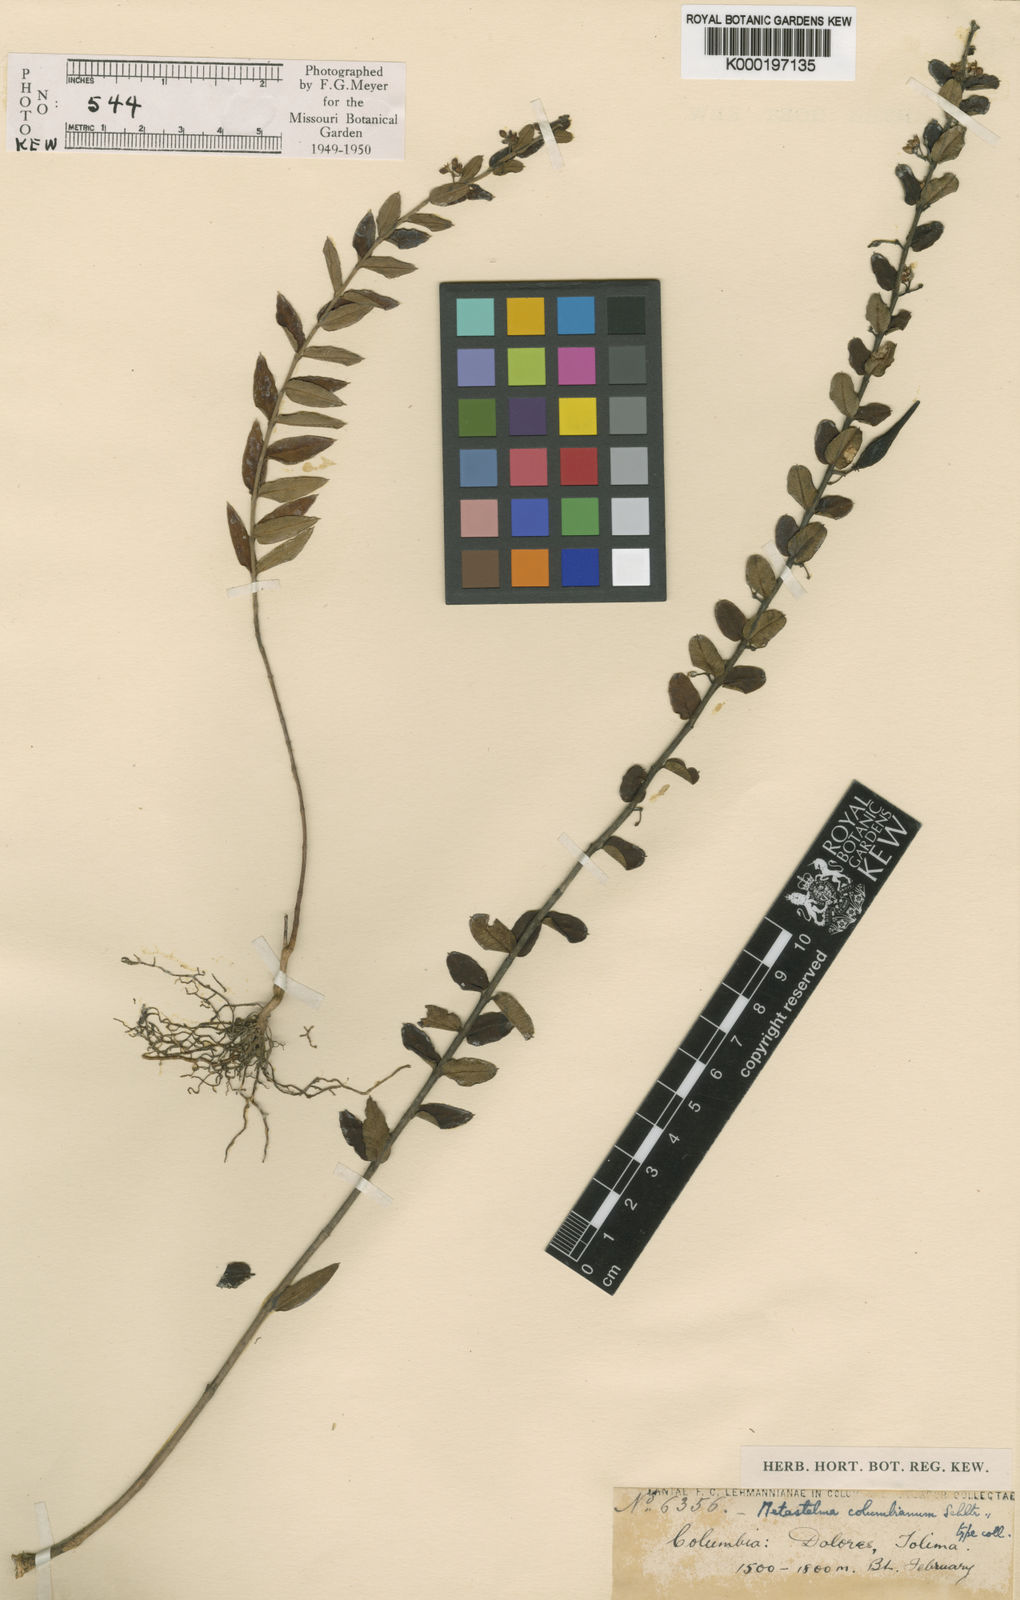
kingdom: Plantae
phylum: Tracheophyta
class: Magnoliopsida
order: Gentianales
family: Apocynaceae
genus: Metastelma
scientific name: Metastelma columbianum
